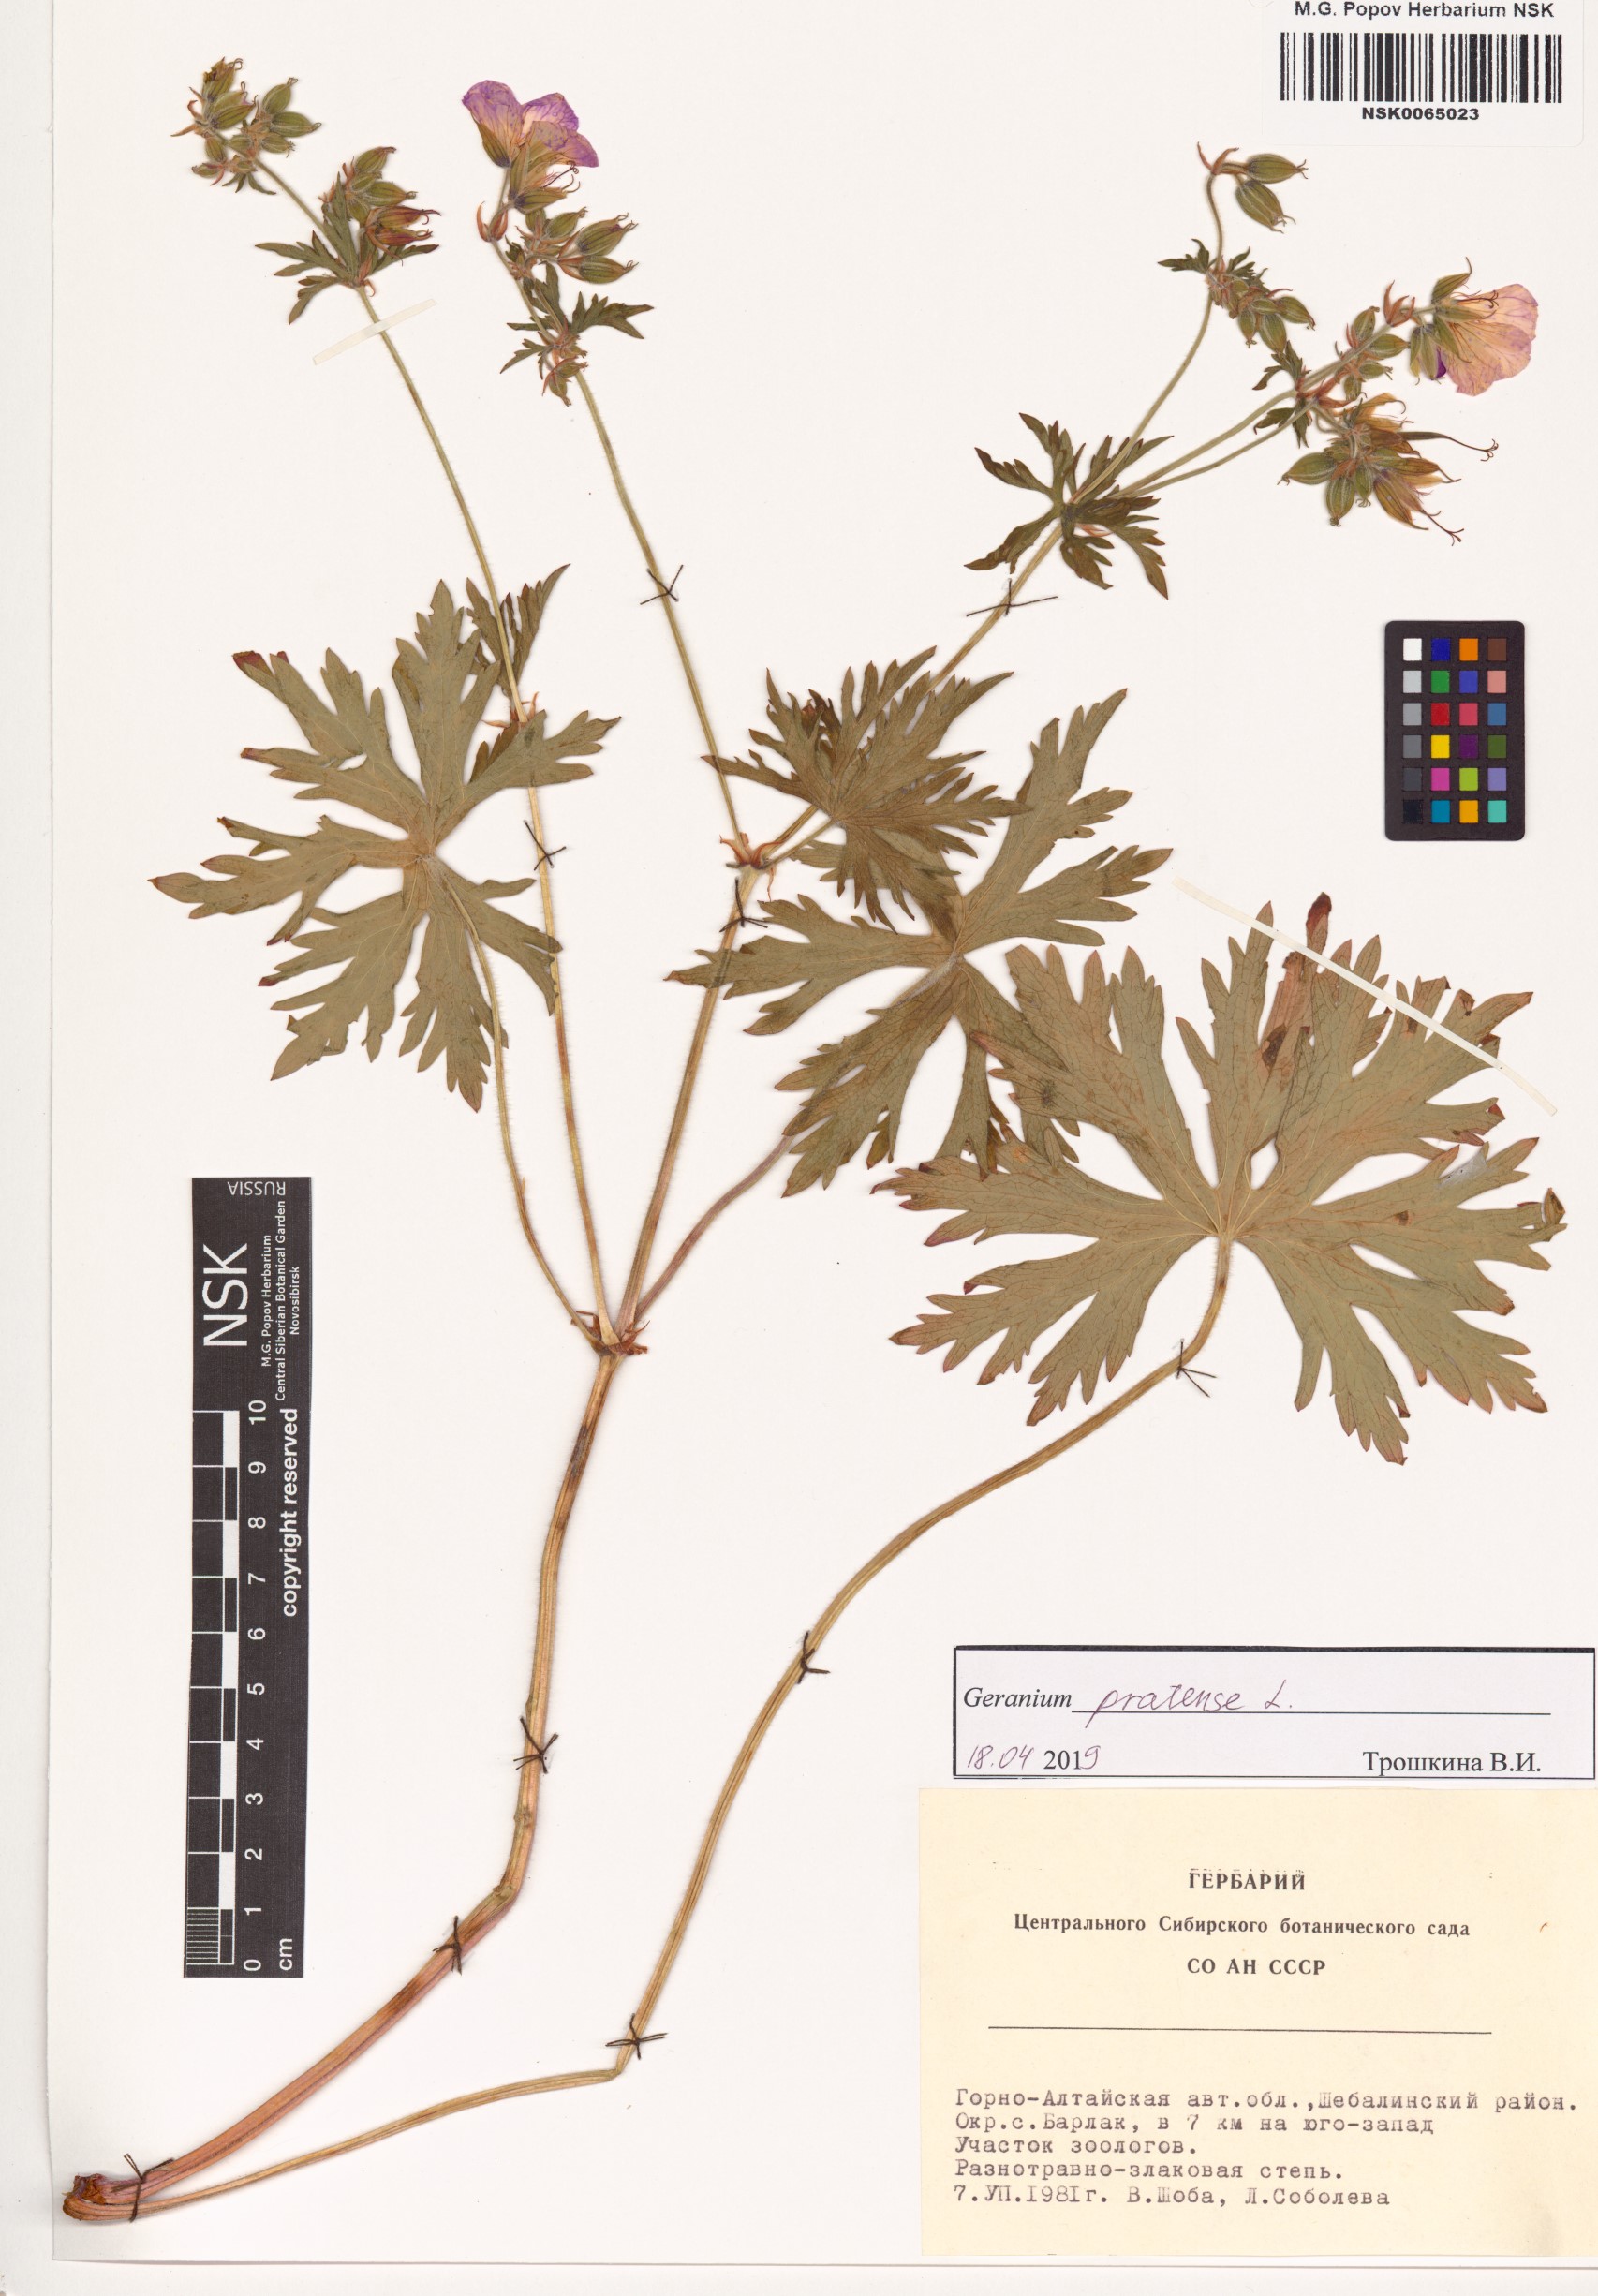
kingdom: Plantae
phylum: Tracheophyta
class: Magnoliopsida
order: Geraniales
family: Geraniaceae
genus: Geranium
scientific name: Geranium pratense
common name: Meadow crane's-bill
